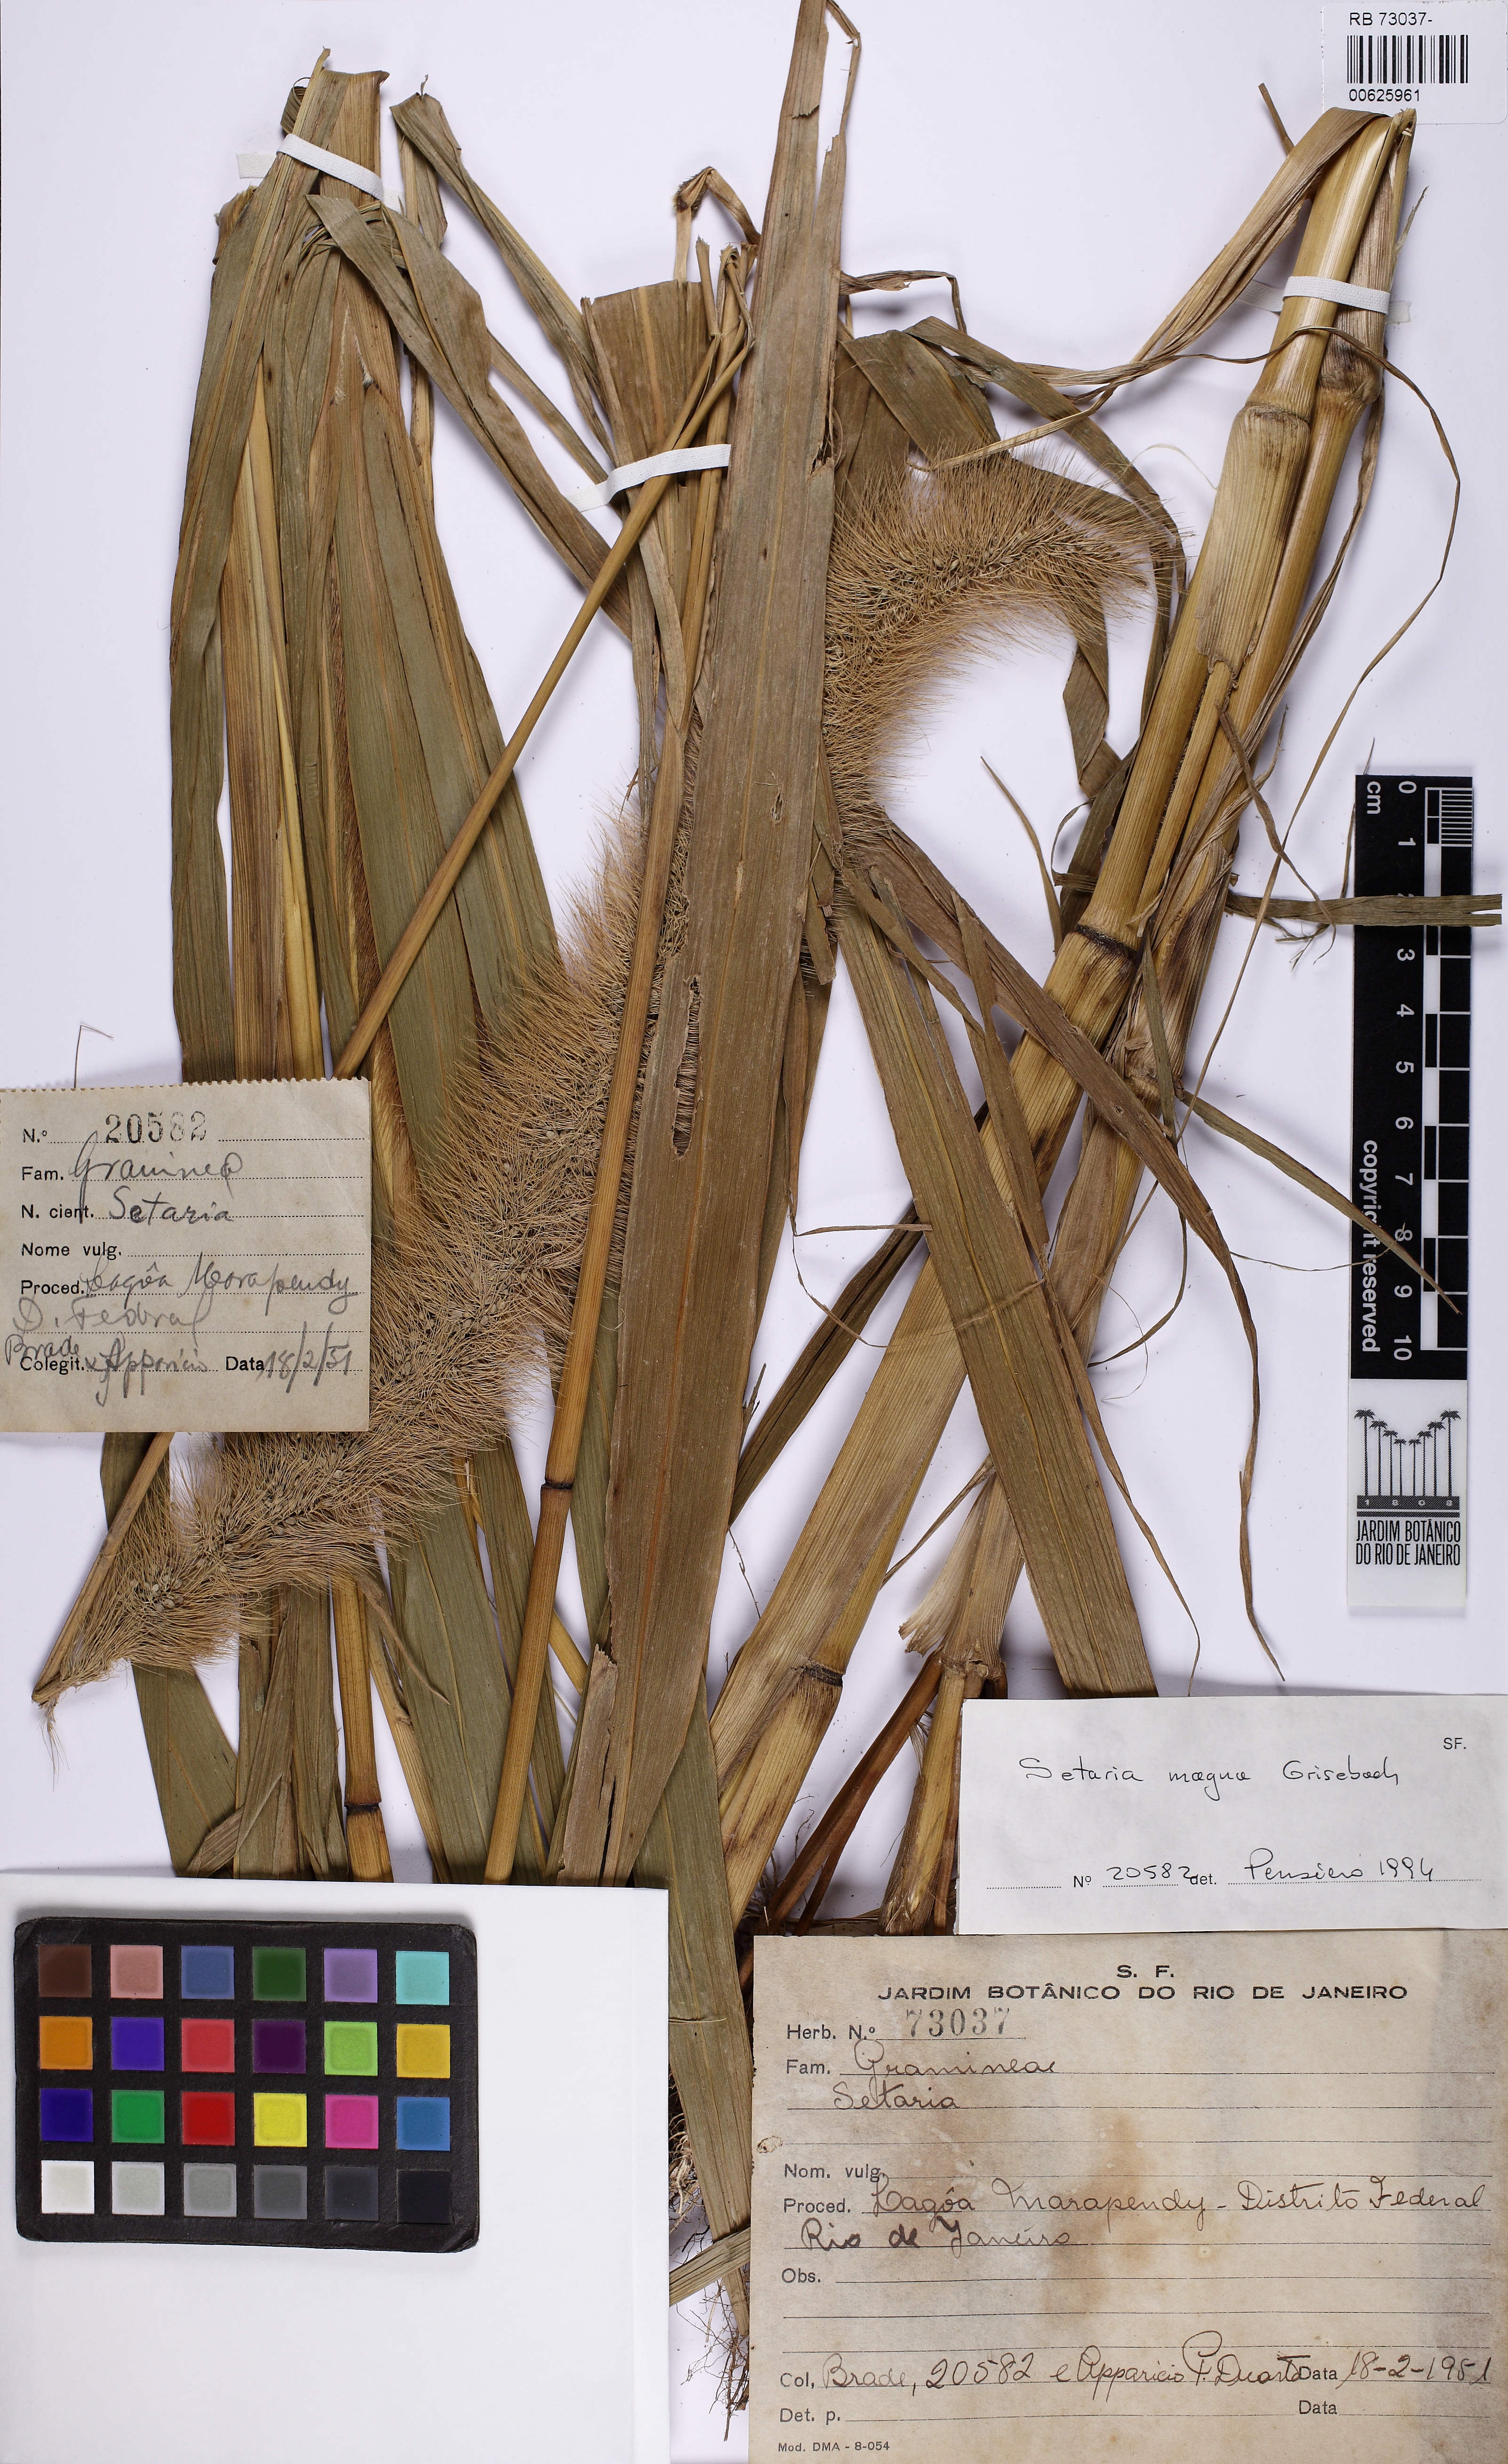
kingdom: Plantae
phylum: Tracheophyta
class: Liliopsida
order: Poales
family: Poaceae
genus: Setaria
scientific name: Setaria magna
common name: Giant bristle grass
